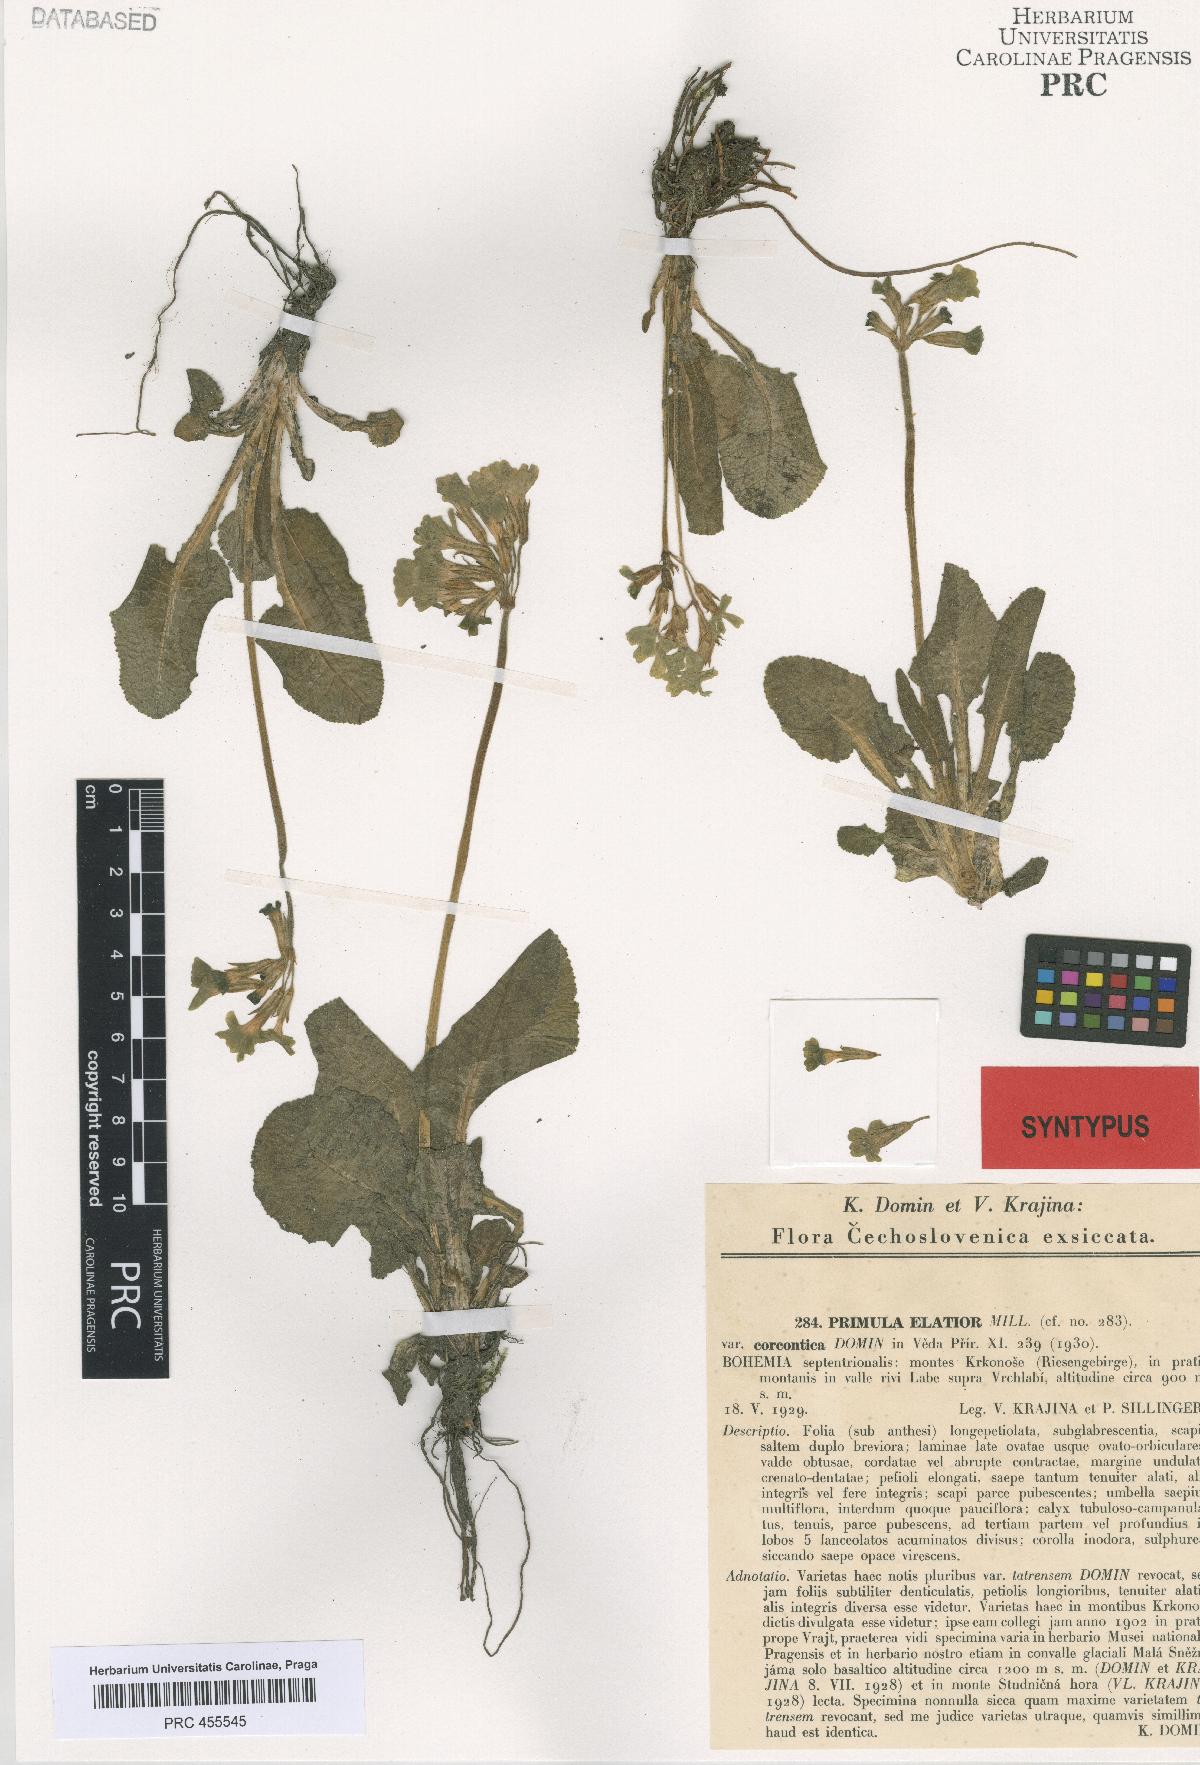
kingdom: Plantae
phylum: Tracheophyta
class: Magnoliopsida
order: Ericales
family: Primulaceae
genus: Primula
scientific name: Primula elatior
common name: Oxlip
